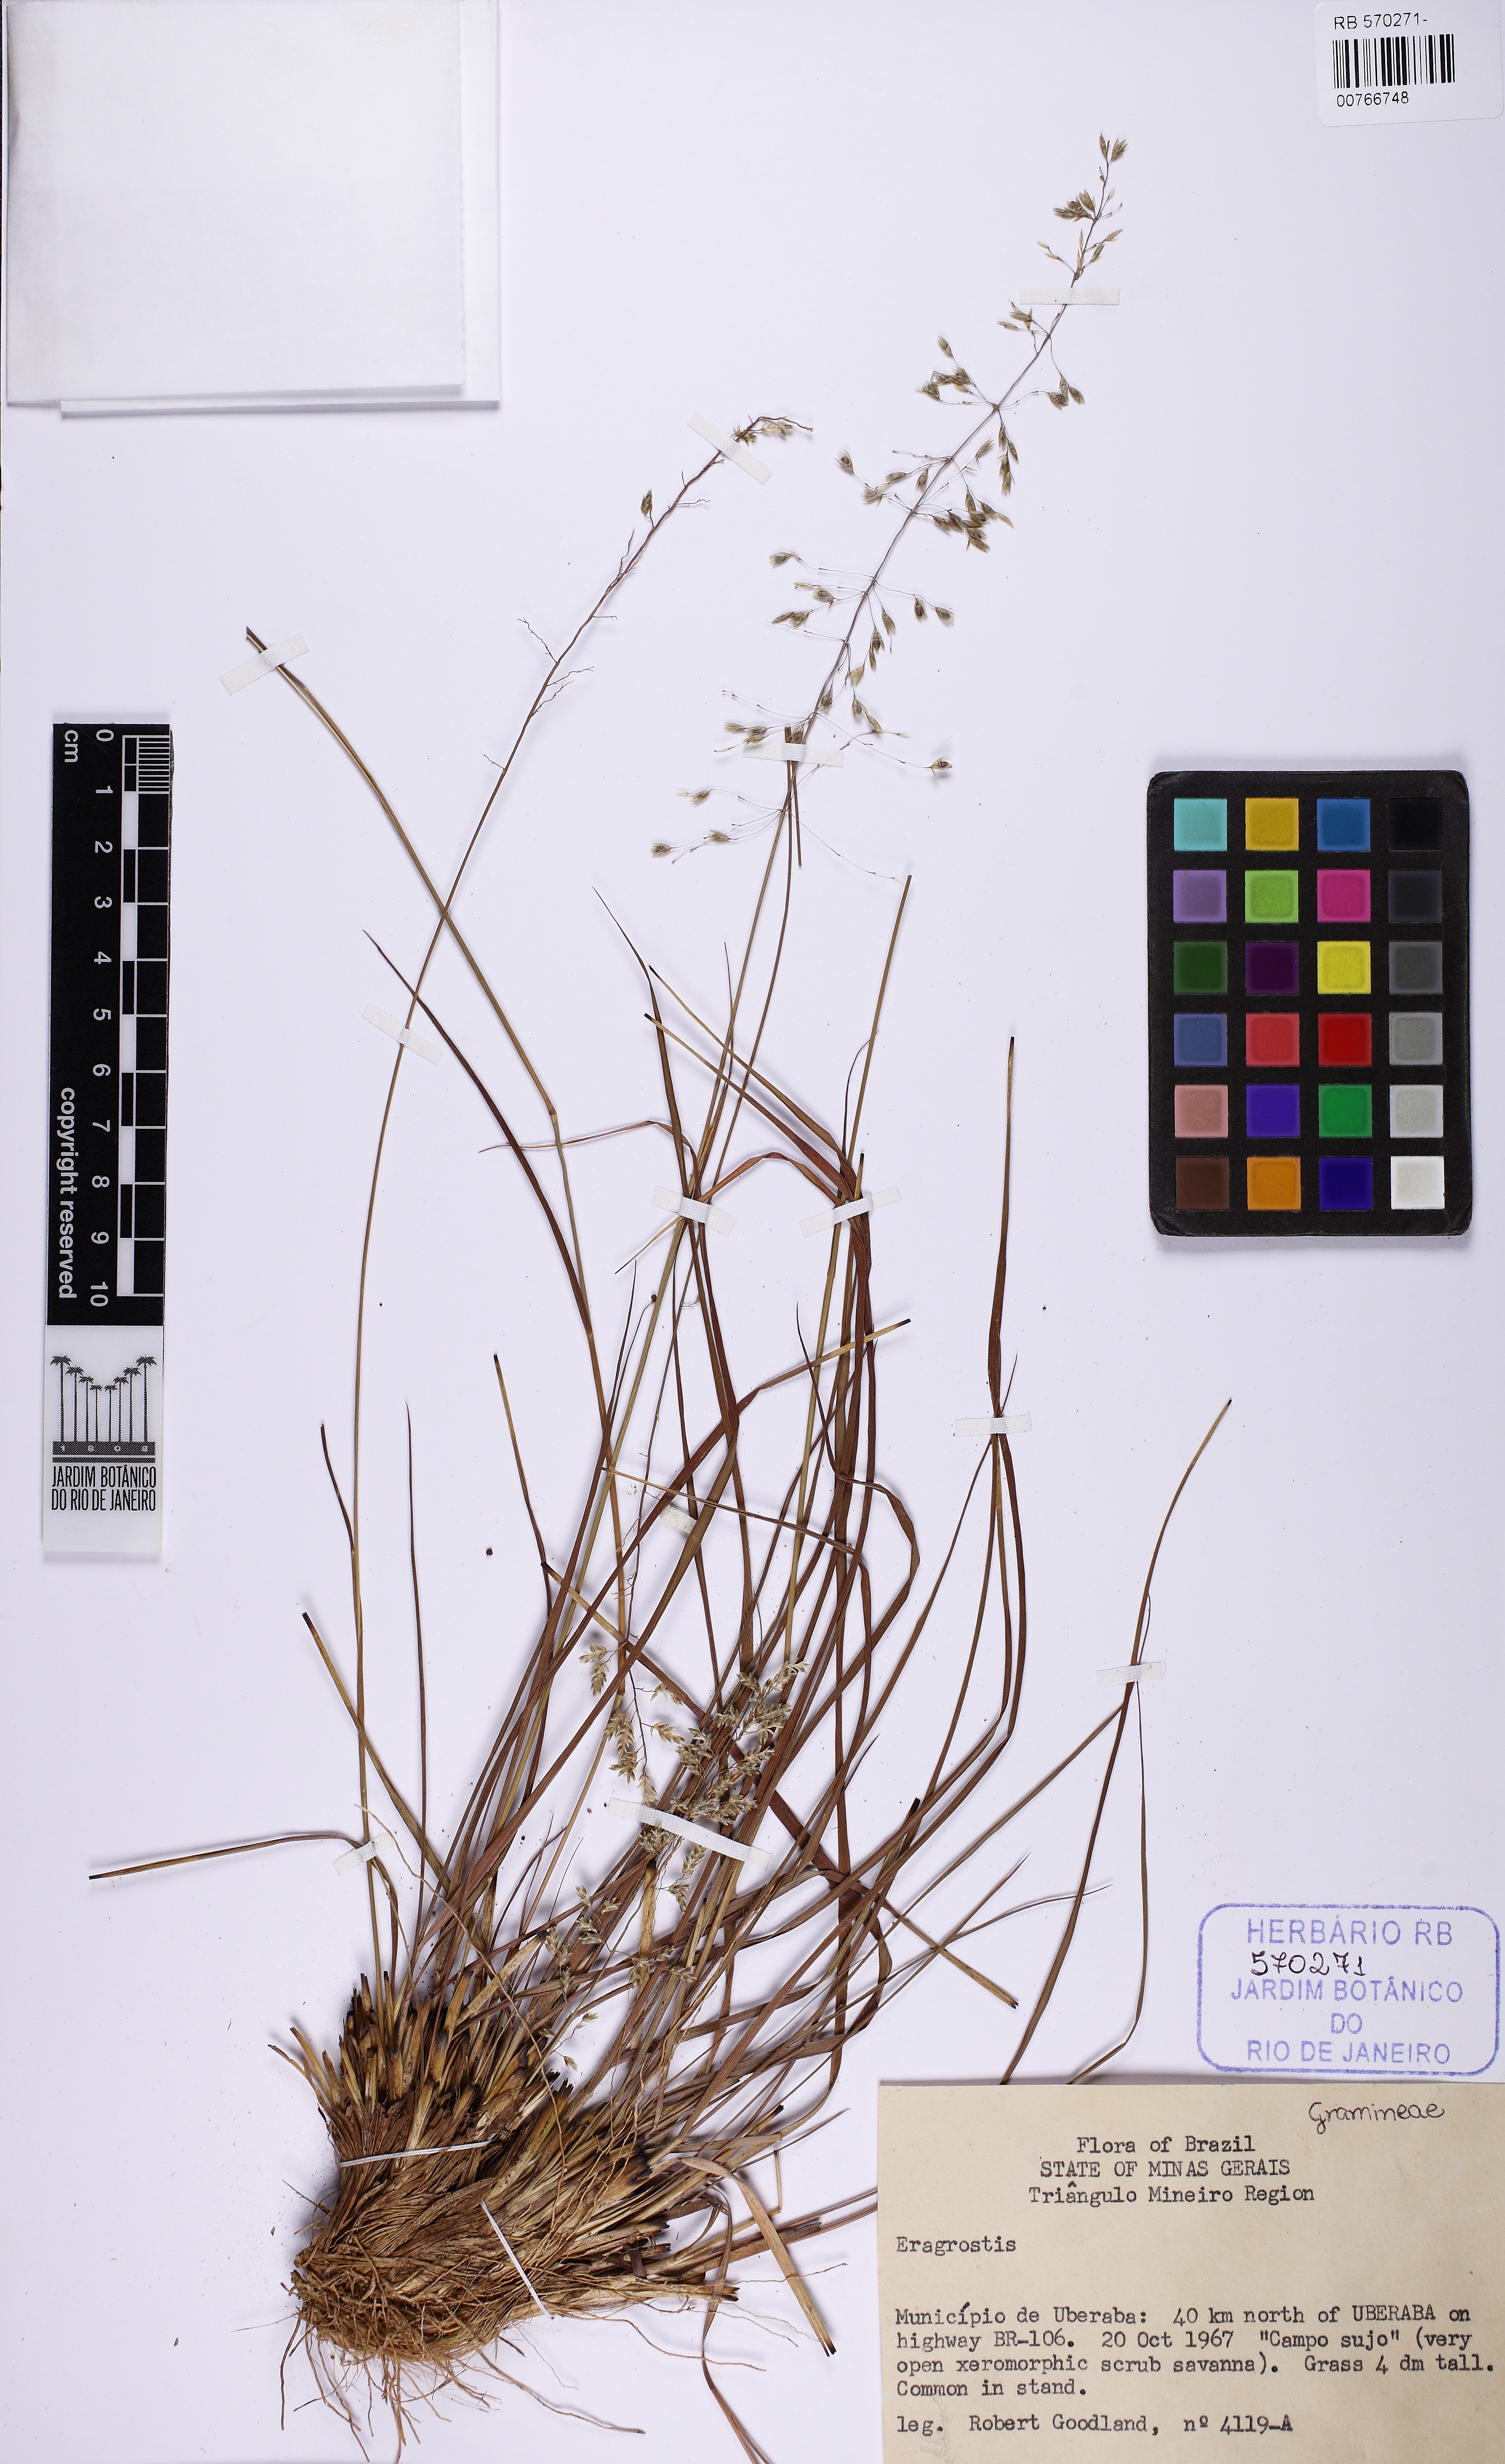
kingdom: Plantae
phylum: Tracheophyta
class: Liliopsida
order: Poales
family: Poaceae
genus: Eragrostis
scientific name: Eragrostis
